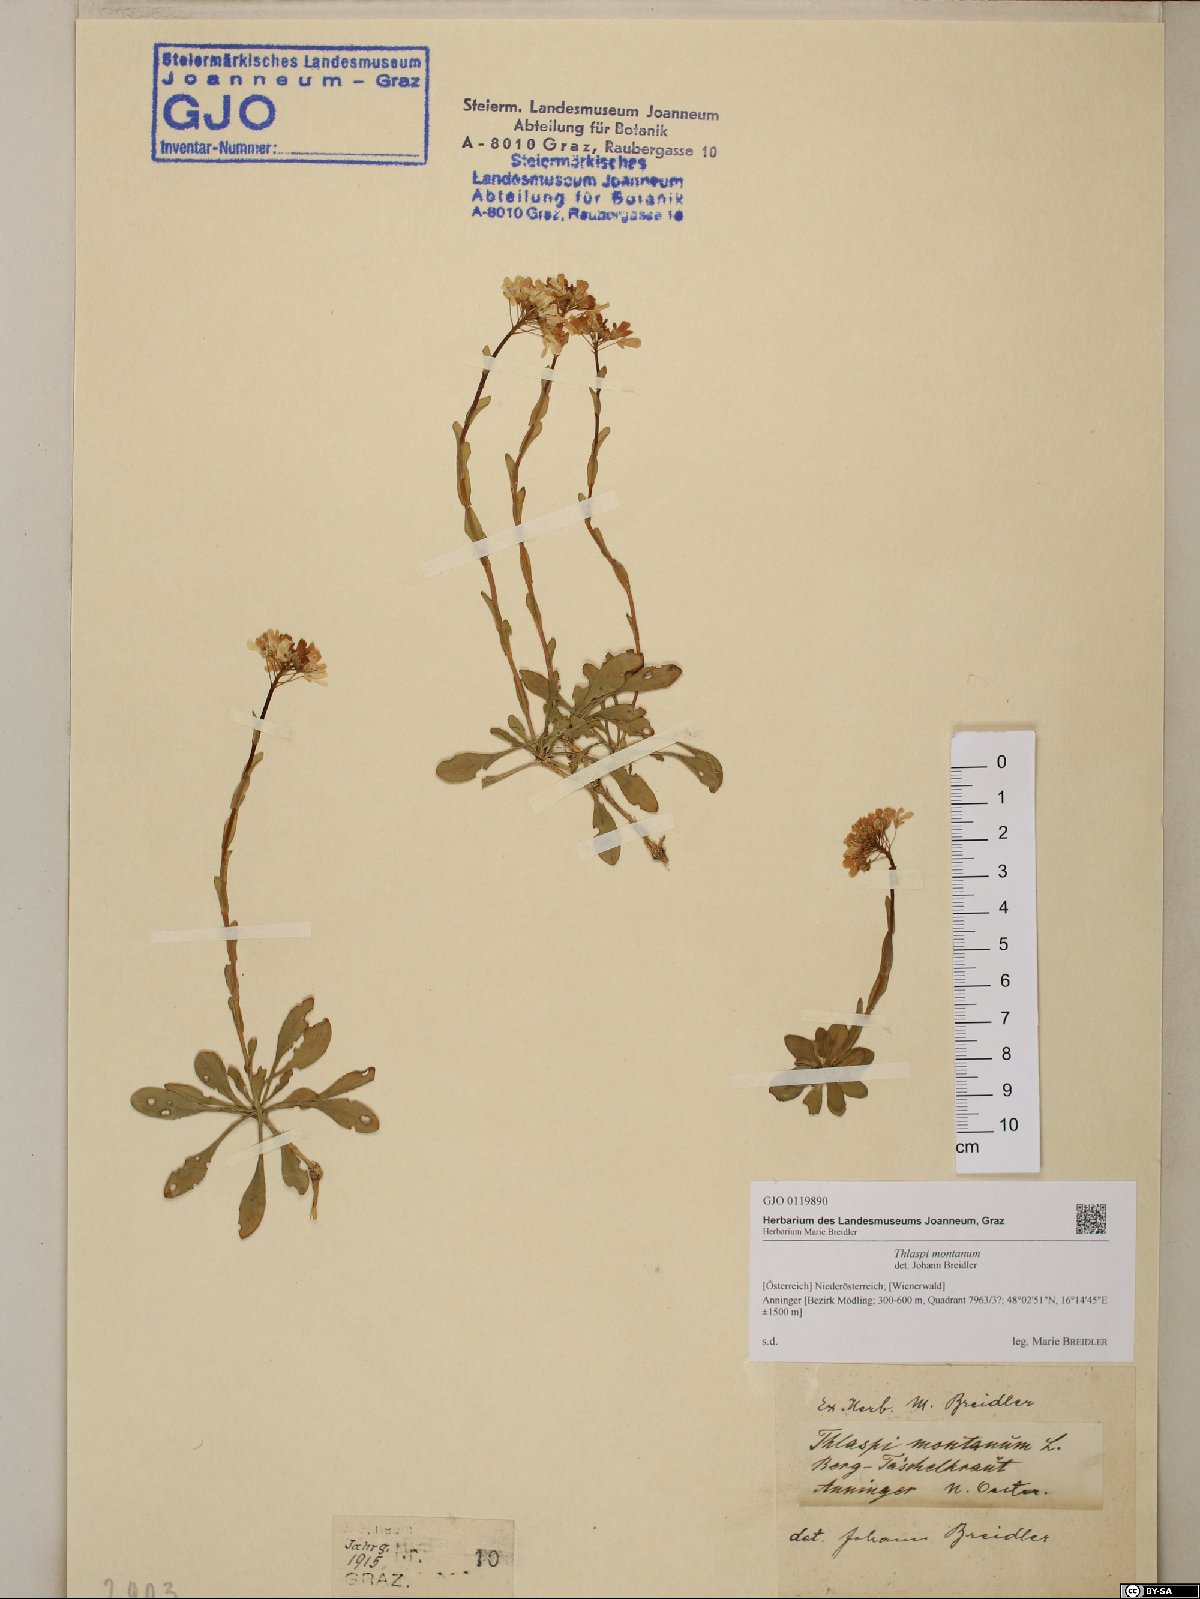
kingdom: Plantae
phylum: Tracheophyta
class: Magnoliopsida
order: Brassicales
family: Brassicaceae
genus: Noccaea
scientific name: Noccaea montana
